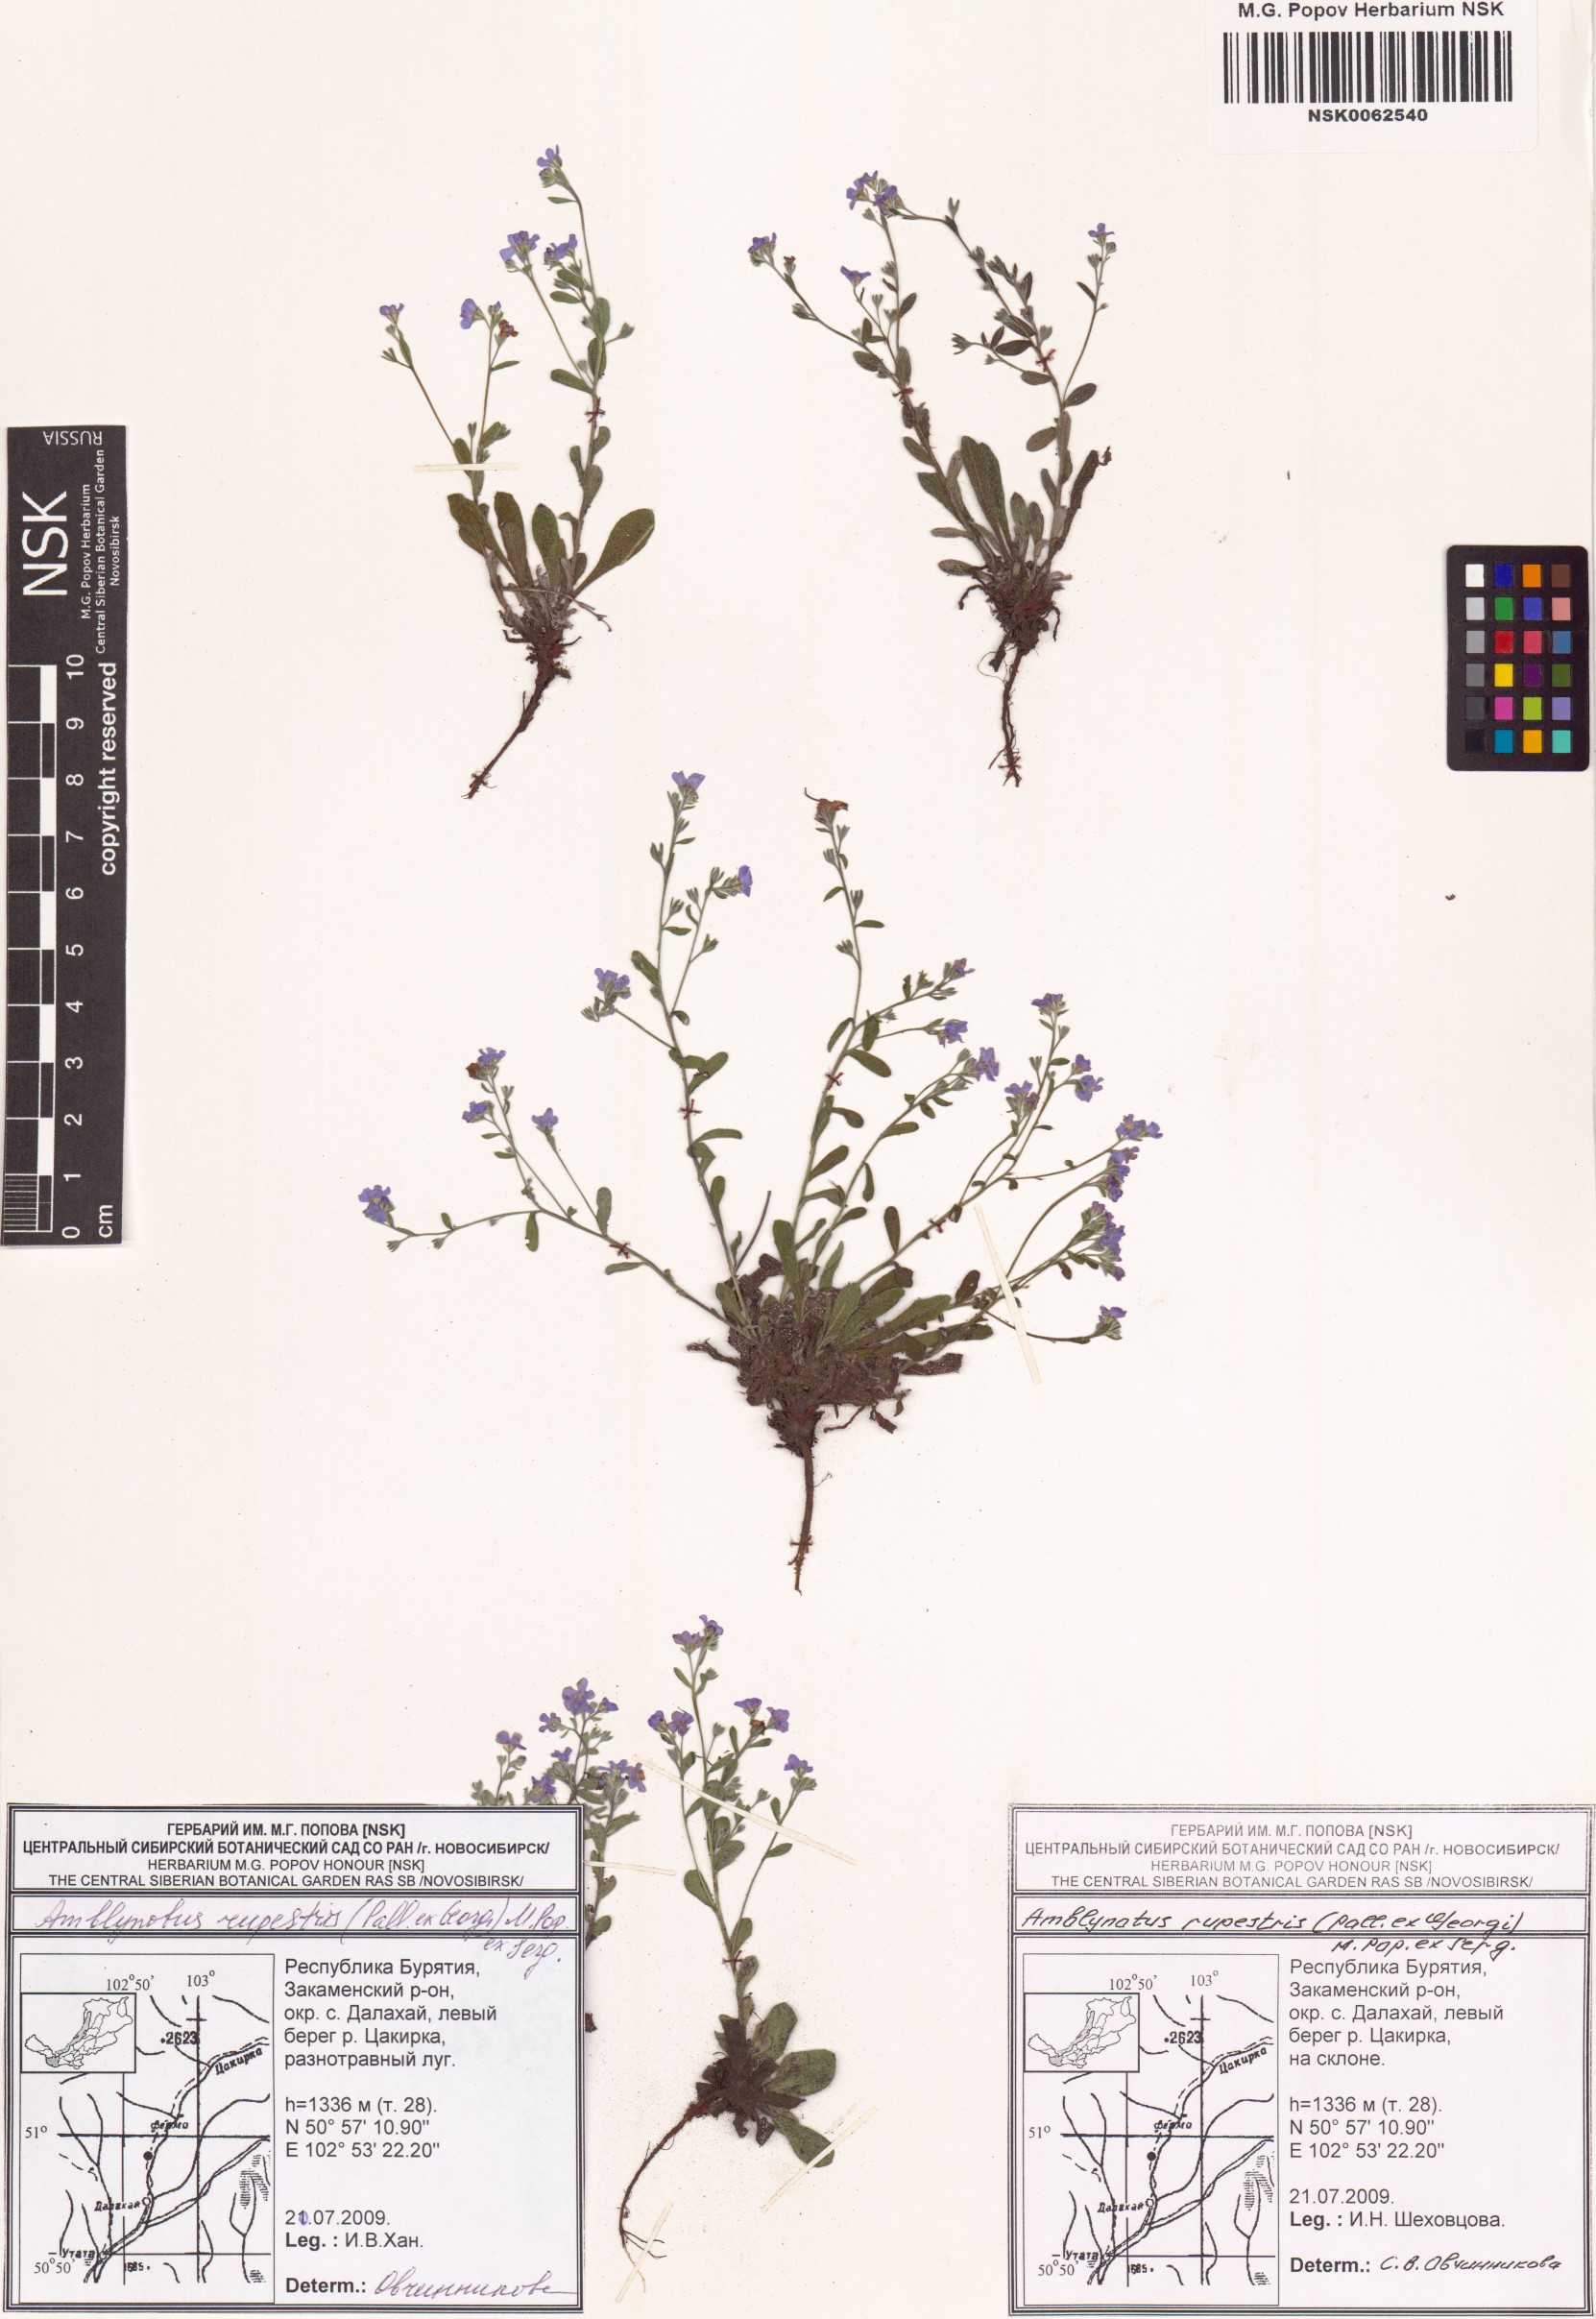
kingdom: Plantae
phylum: Tracheophyta
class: Magnoliopsida
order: Boraginales
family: Boraginaceae
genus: Eritrichium
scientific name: Eritrichium rupestre
